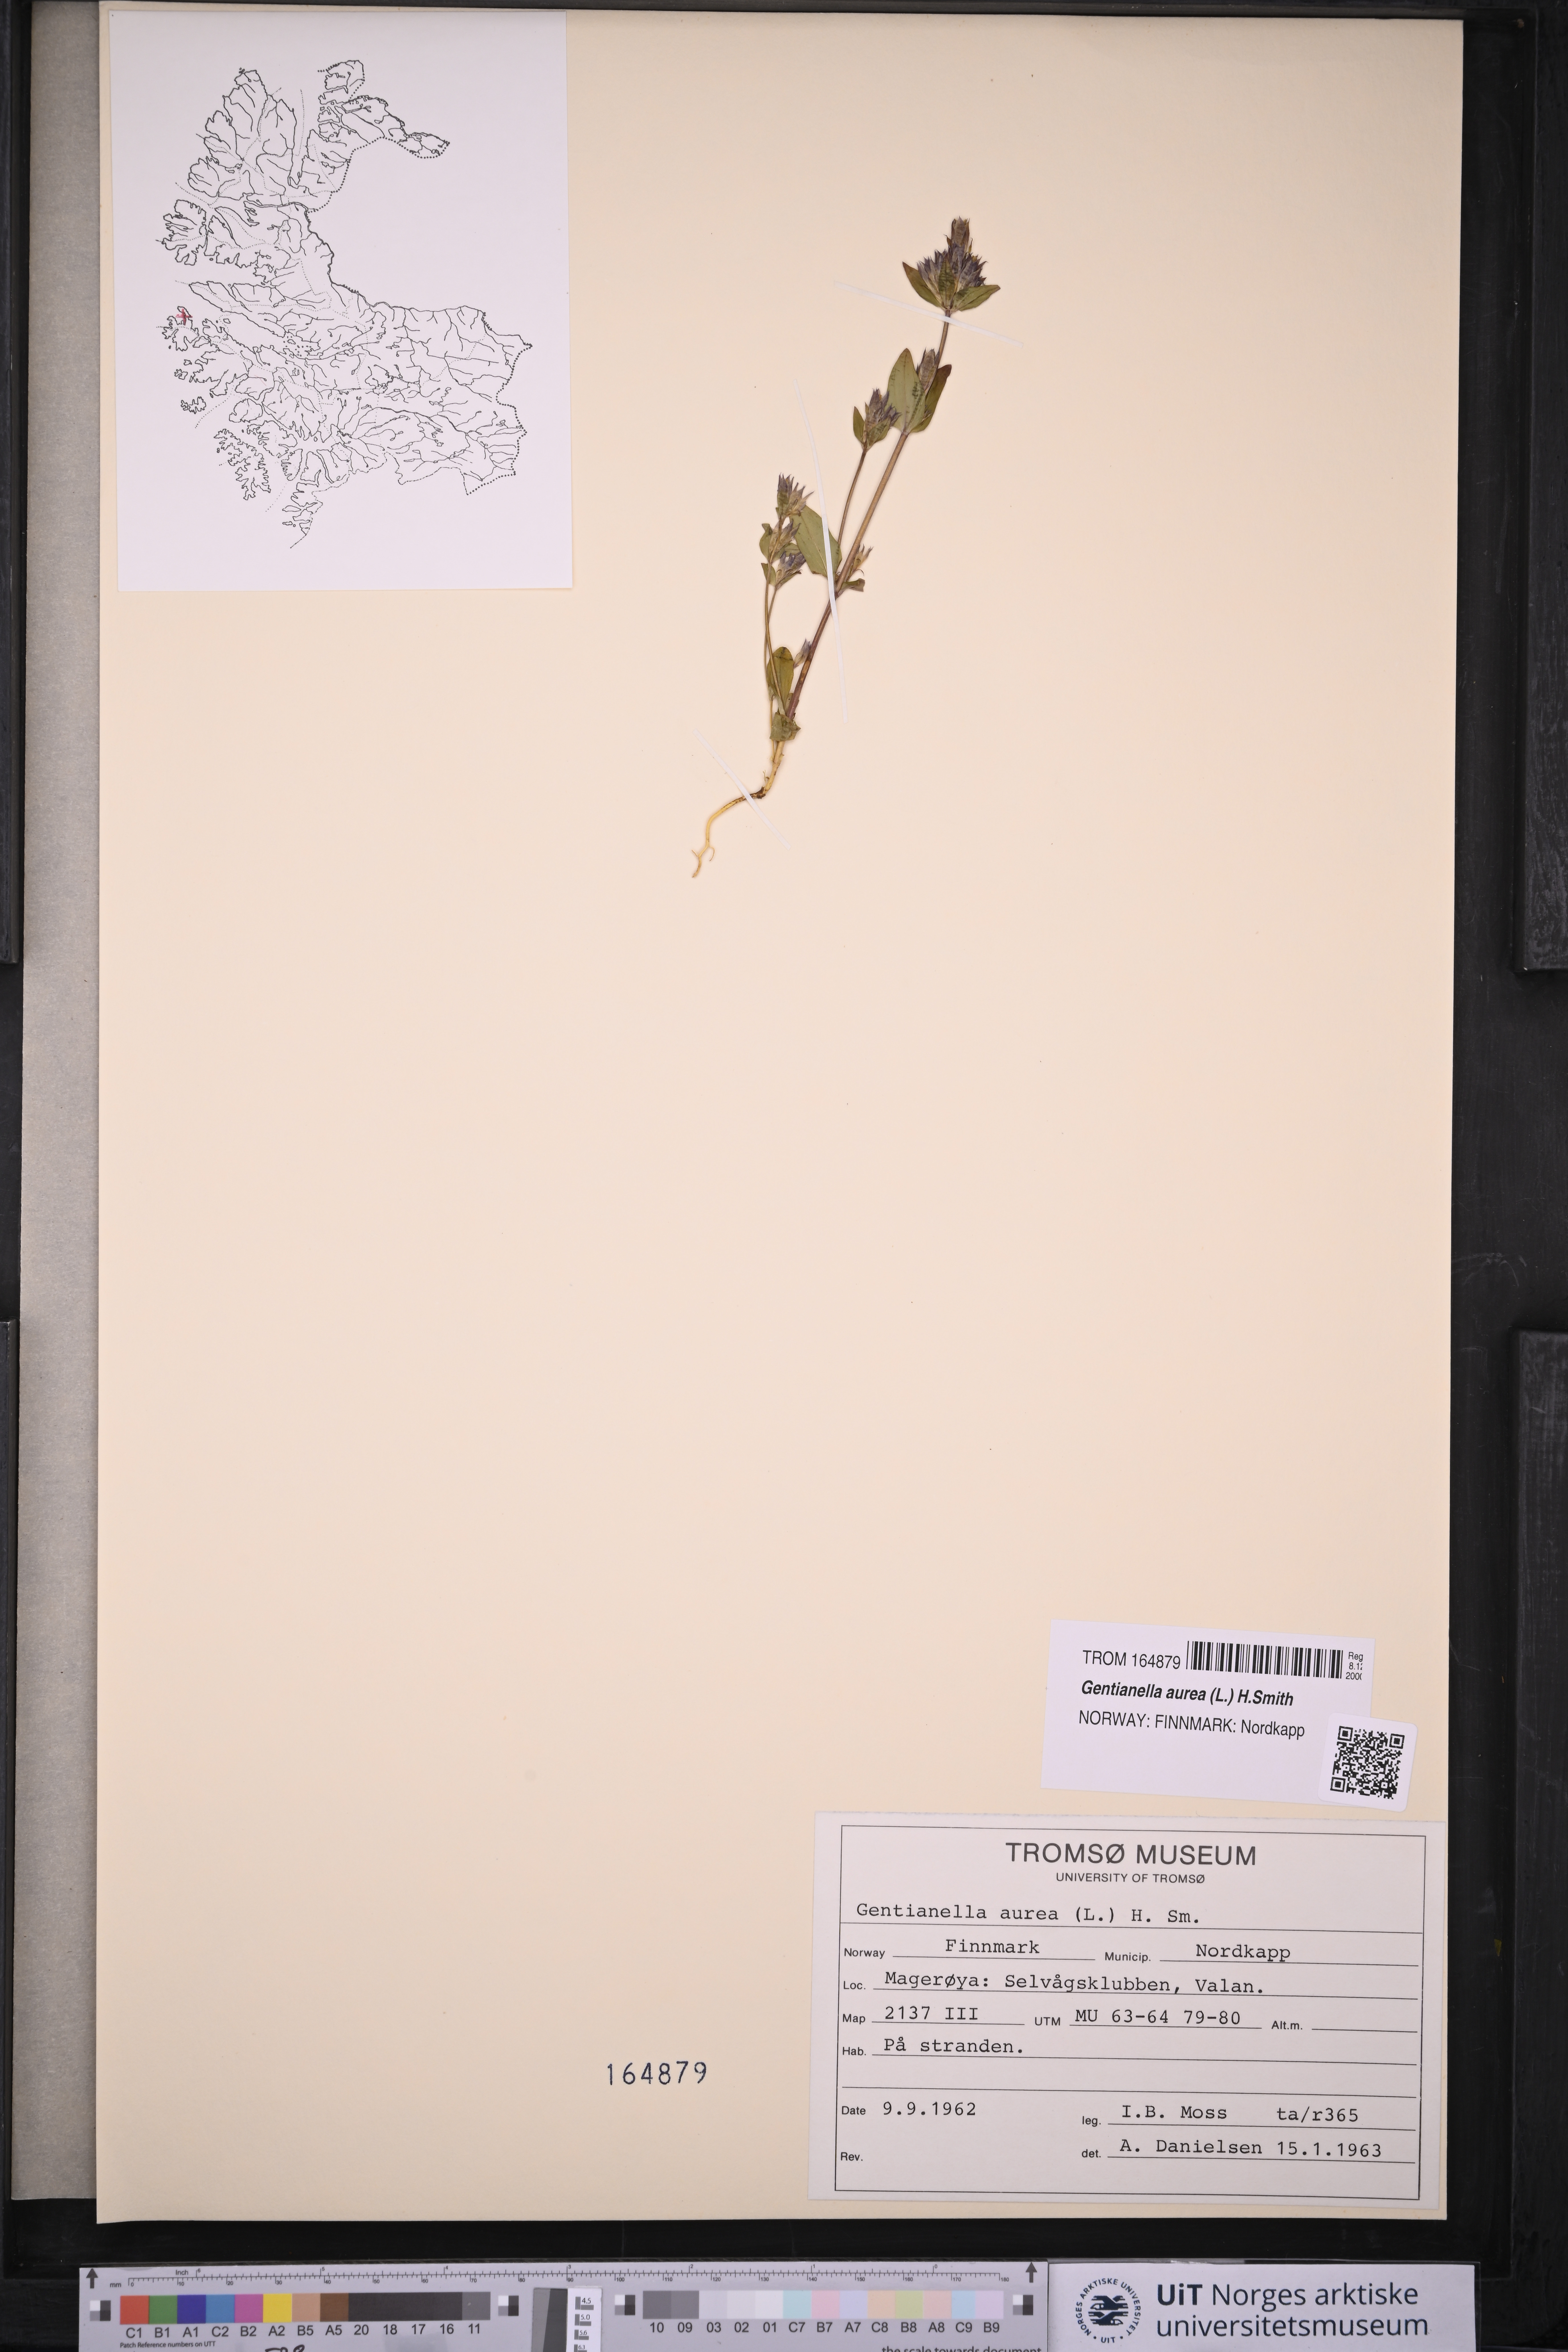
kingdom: Plantae
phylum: Tracheophyta
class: Magnoliopsida
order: Gentianales
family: Gentianaceae
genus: Gentianella
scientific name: Gentianella aurea
